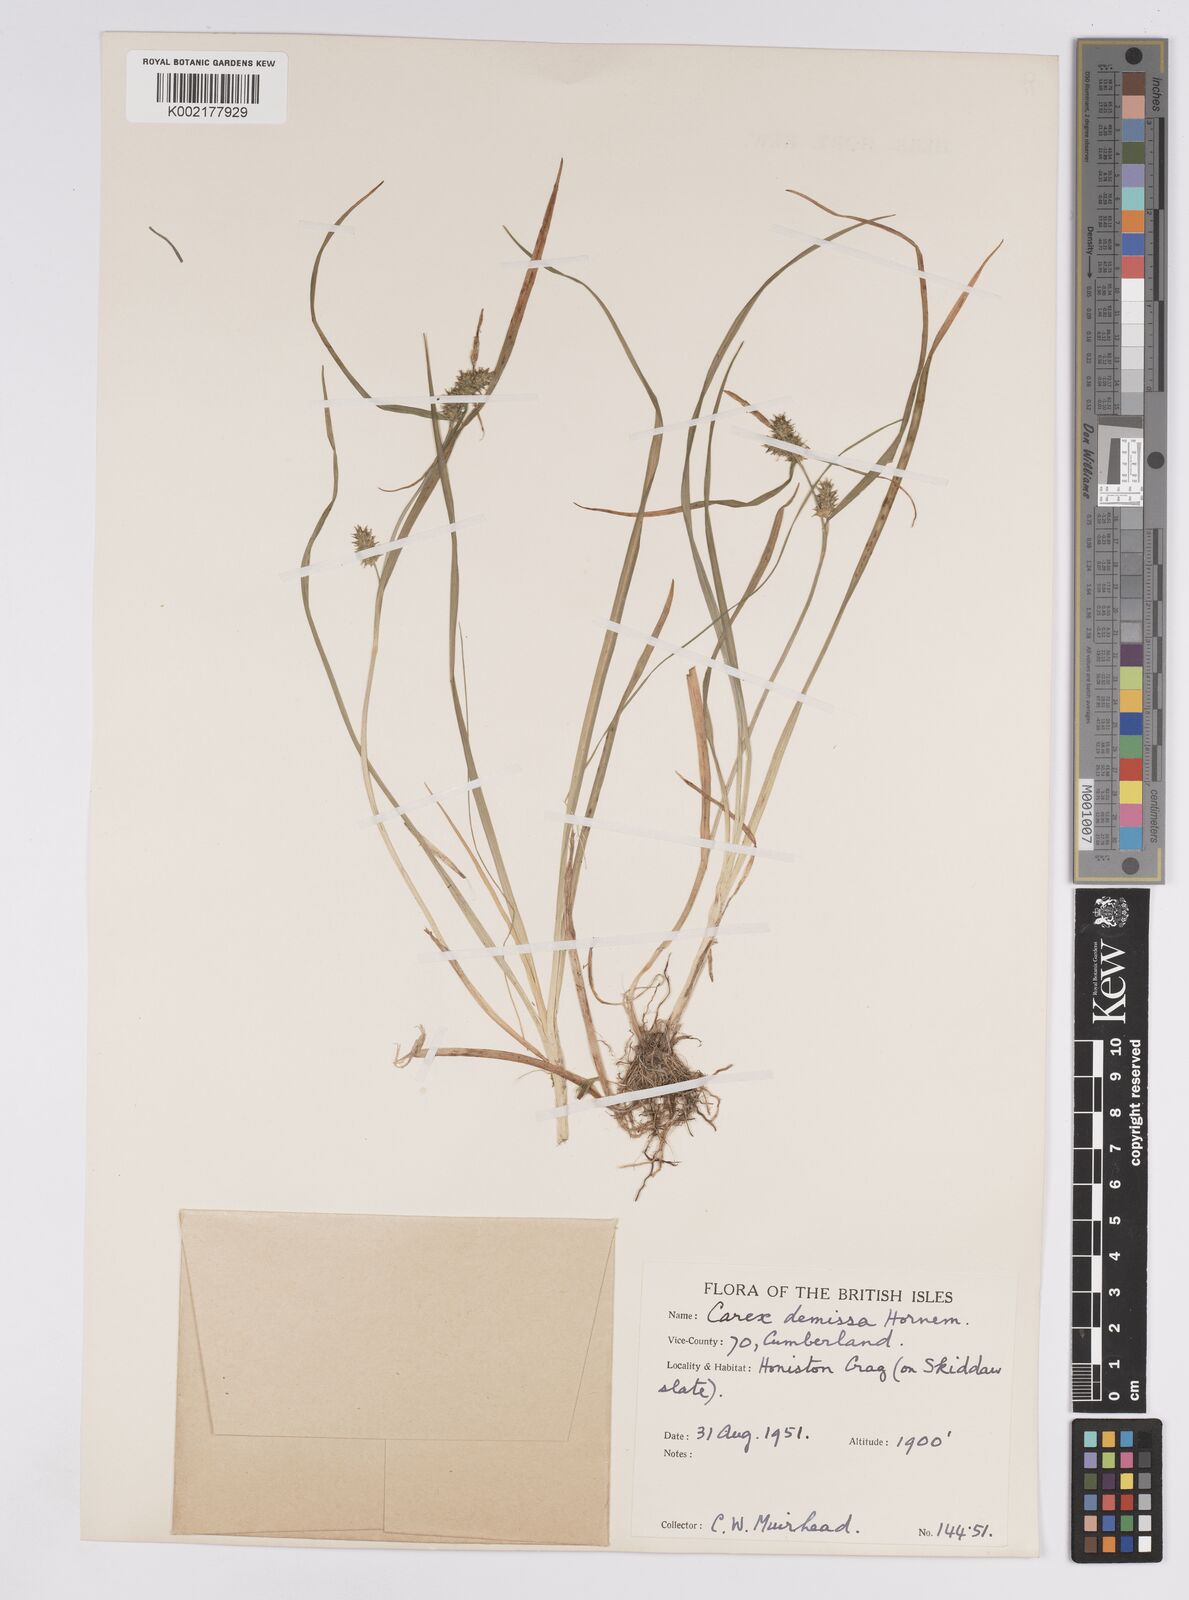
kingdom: Plantae
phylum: Tracheophyta
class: Liliopsida
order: Poales
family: Cyperaceae
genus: Carex
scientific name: Carex demissa
